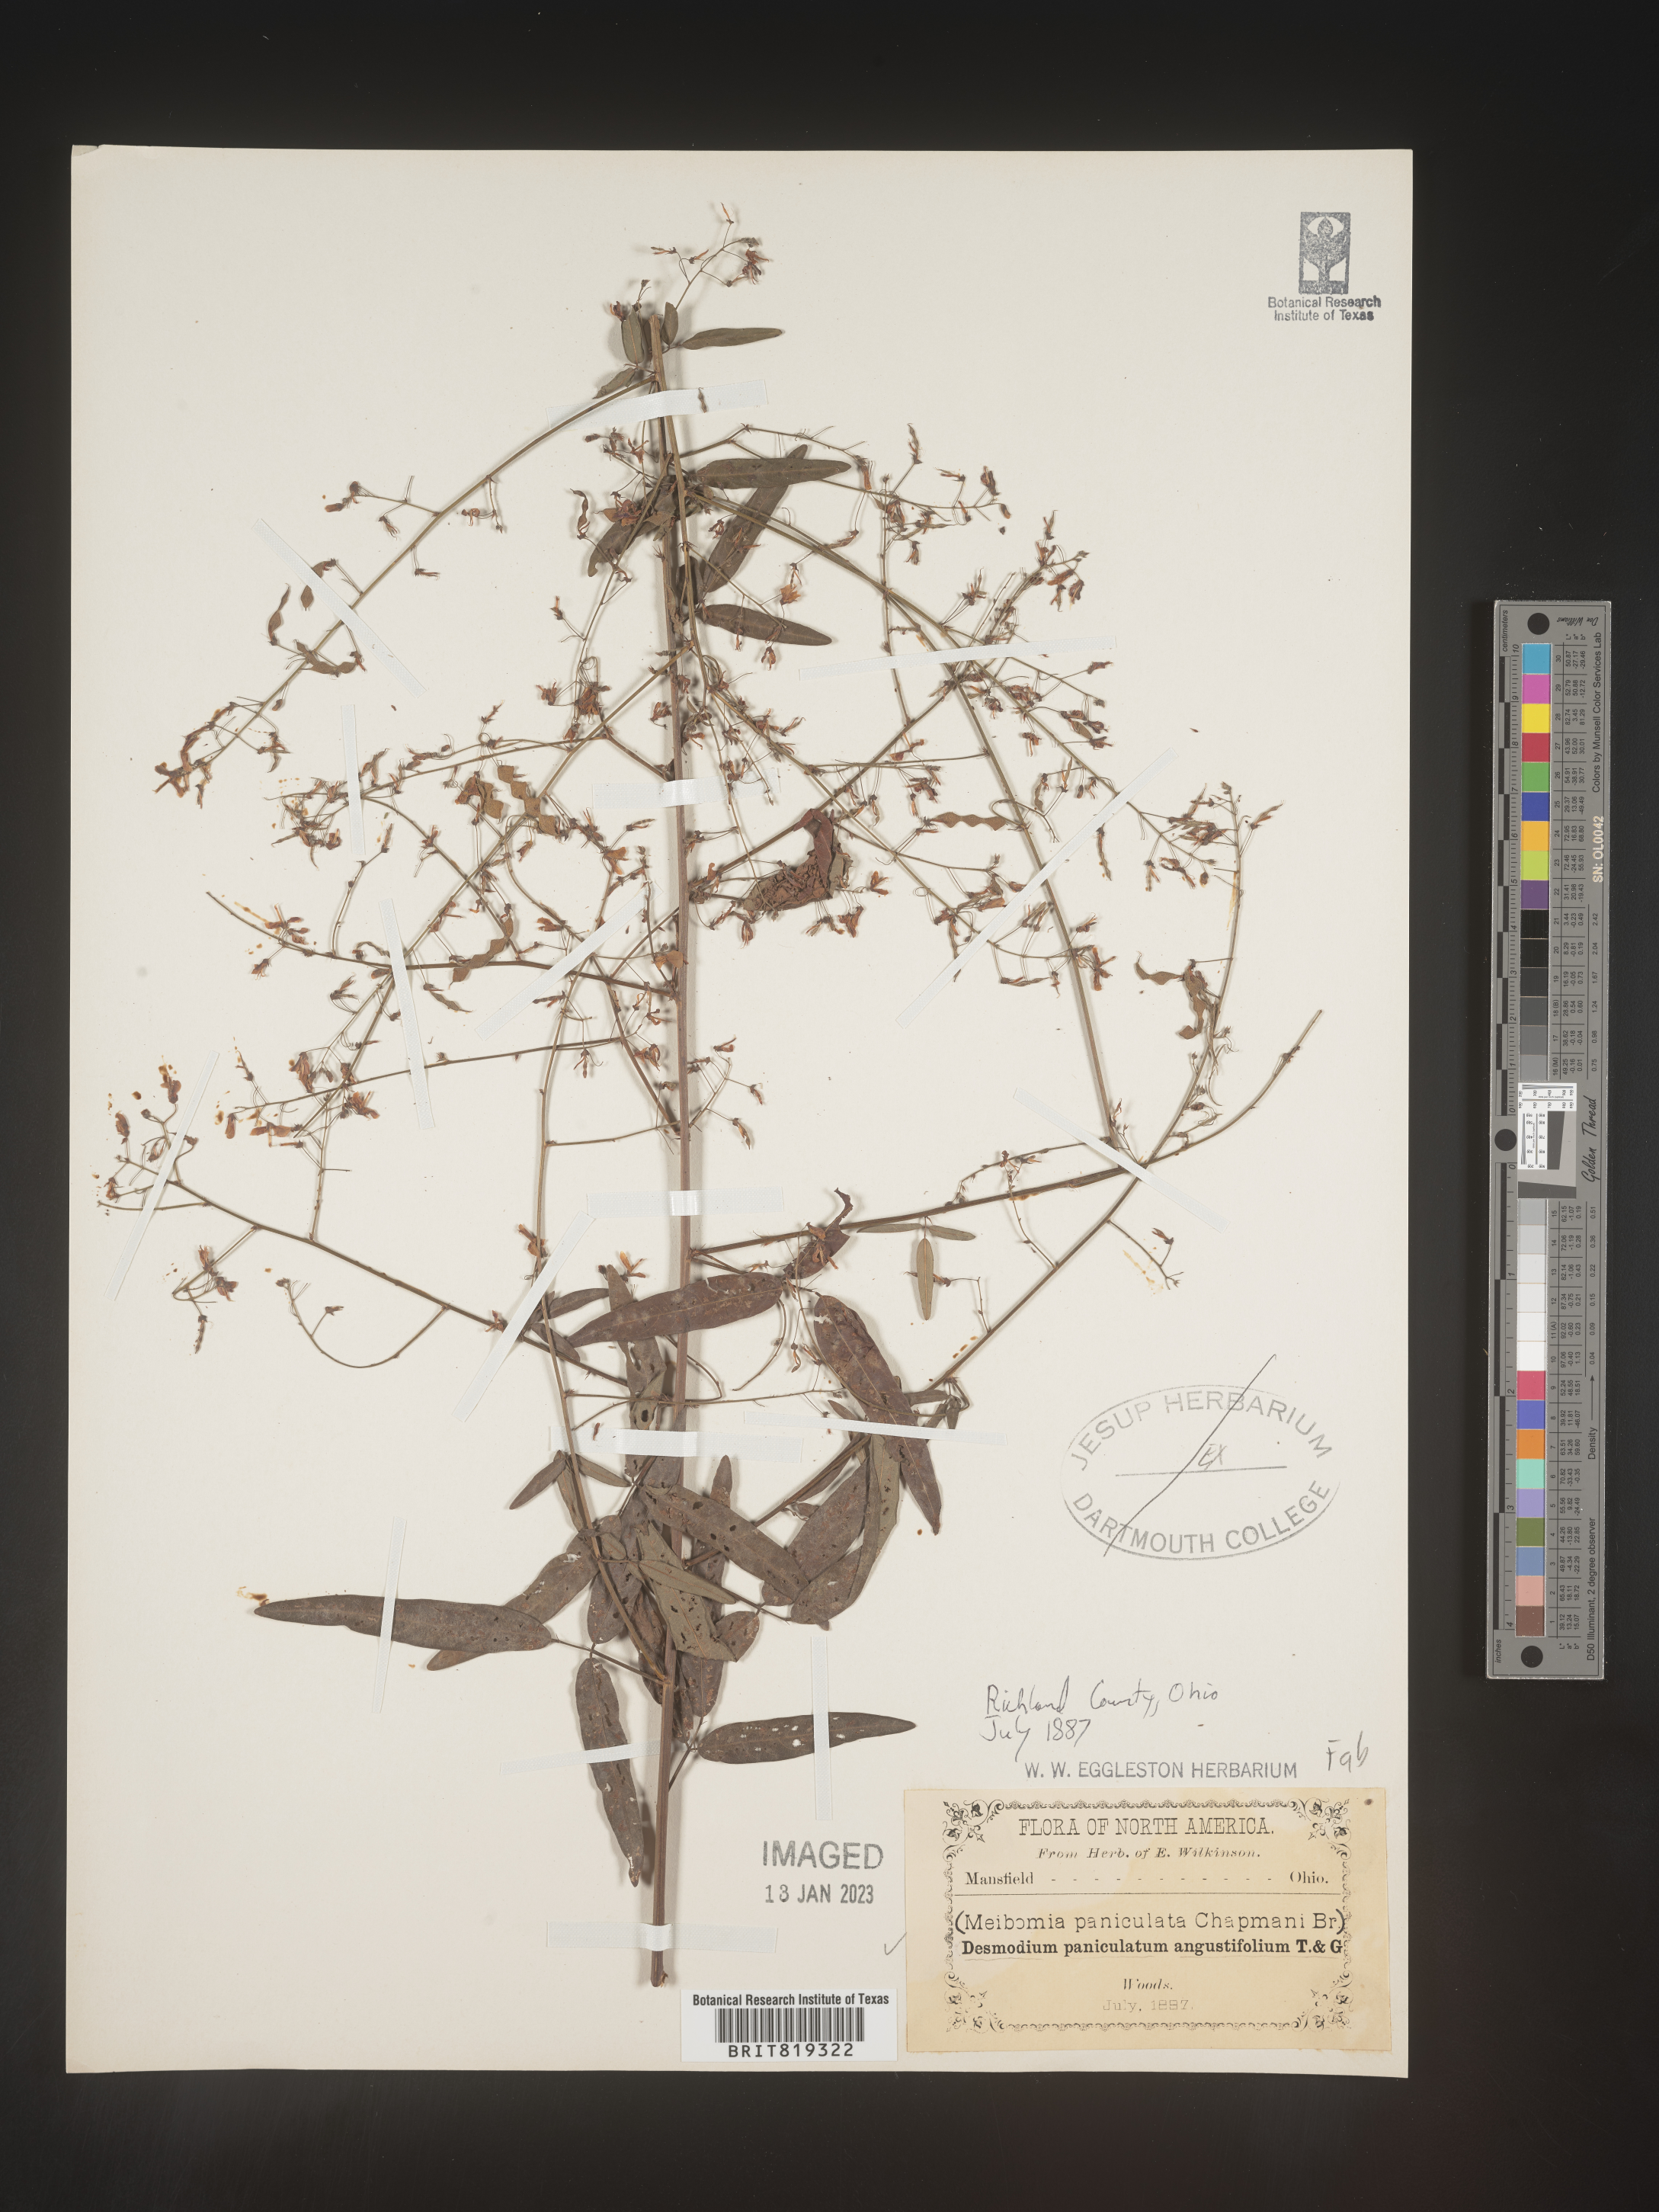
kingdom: Plantae
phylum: Tracheophyta
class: Magnoliopsida
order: Fabales
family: Fabaceae
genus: Desmodium
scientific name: Desmodium paniculatum
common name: Panicled tick-clover
